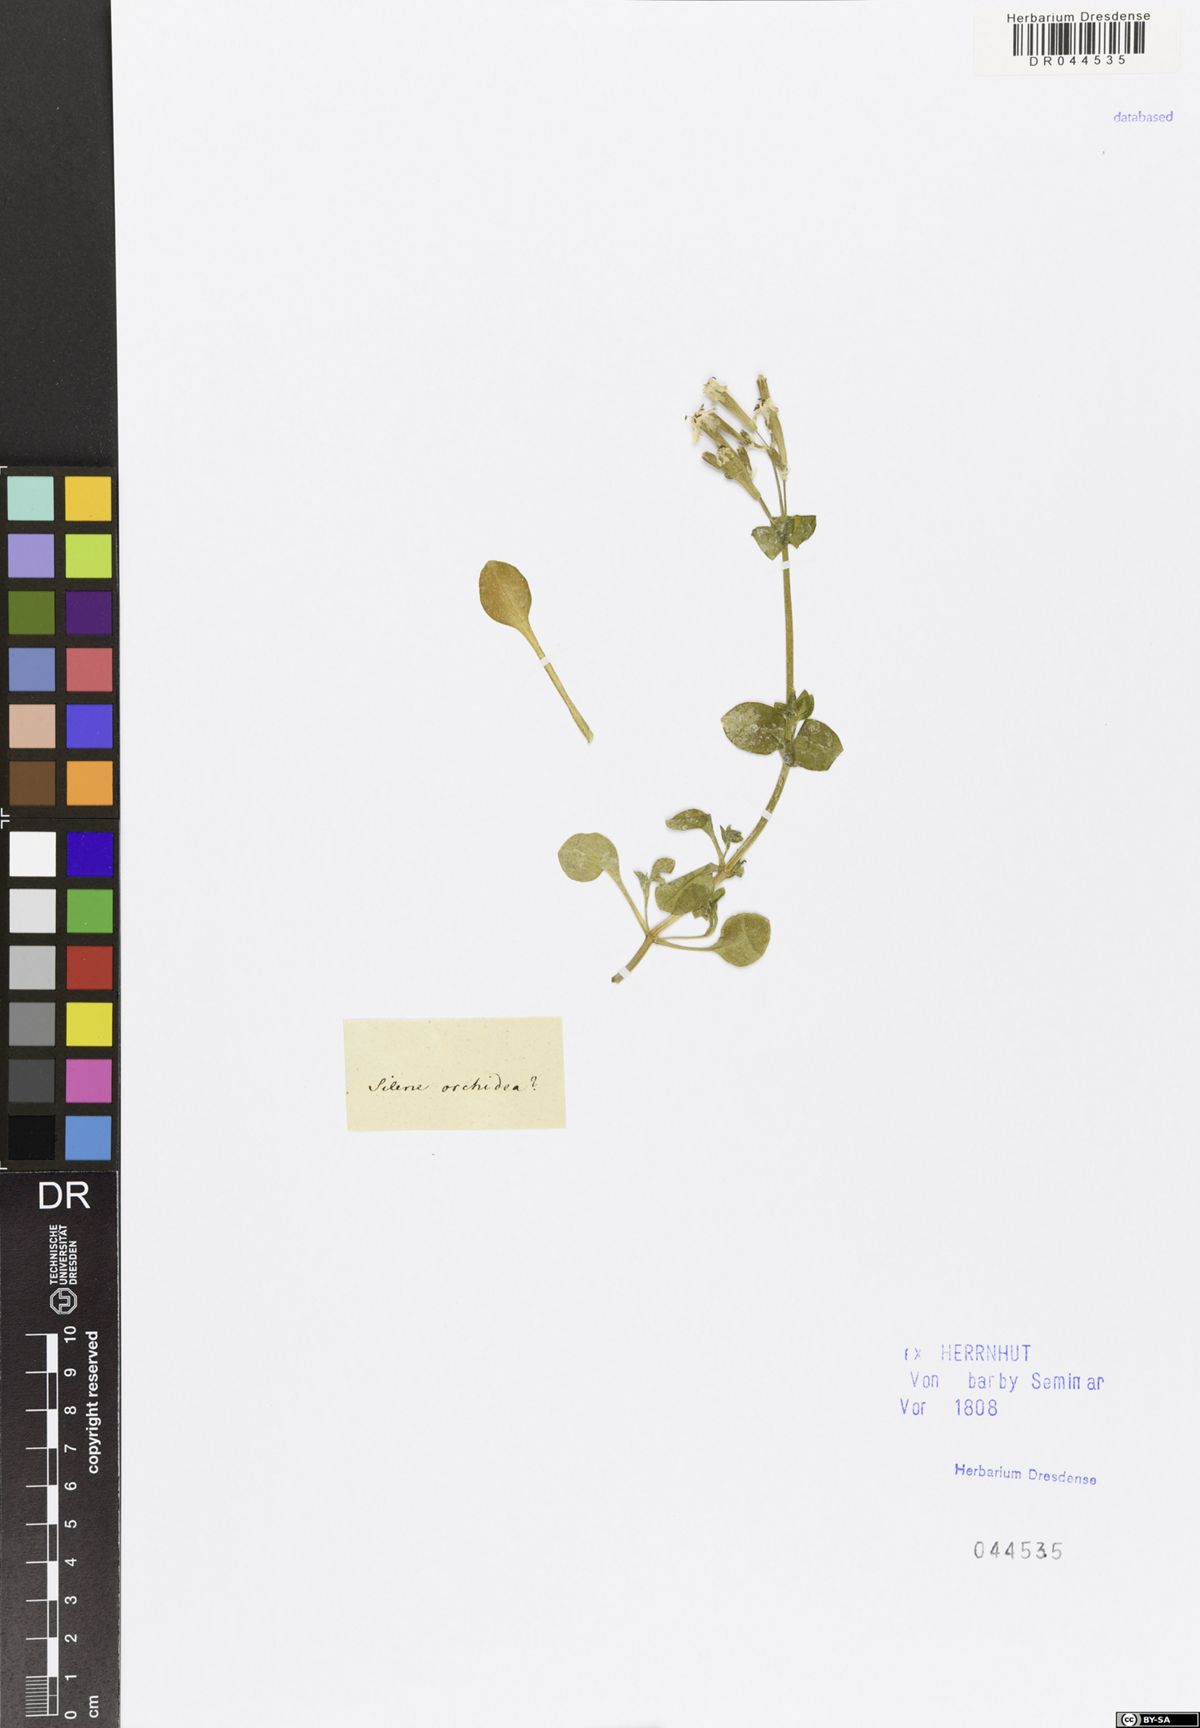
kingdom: Plantae
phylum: Tracheophyta
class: Magnoliopsida
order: Caryophyllales
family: Caryophyllaceae
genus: Silene
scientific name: Silene aegyptiaca
